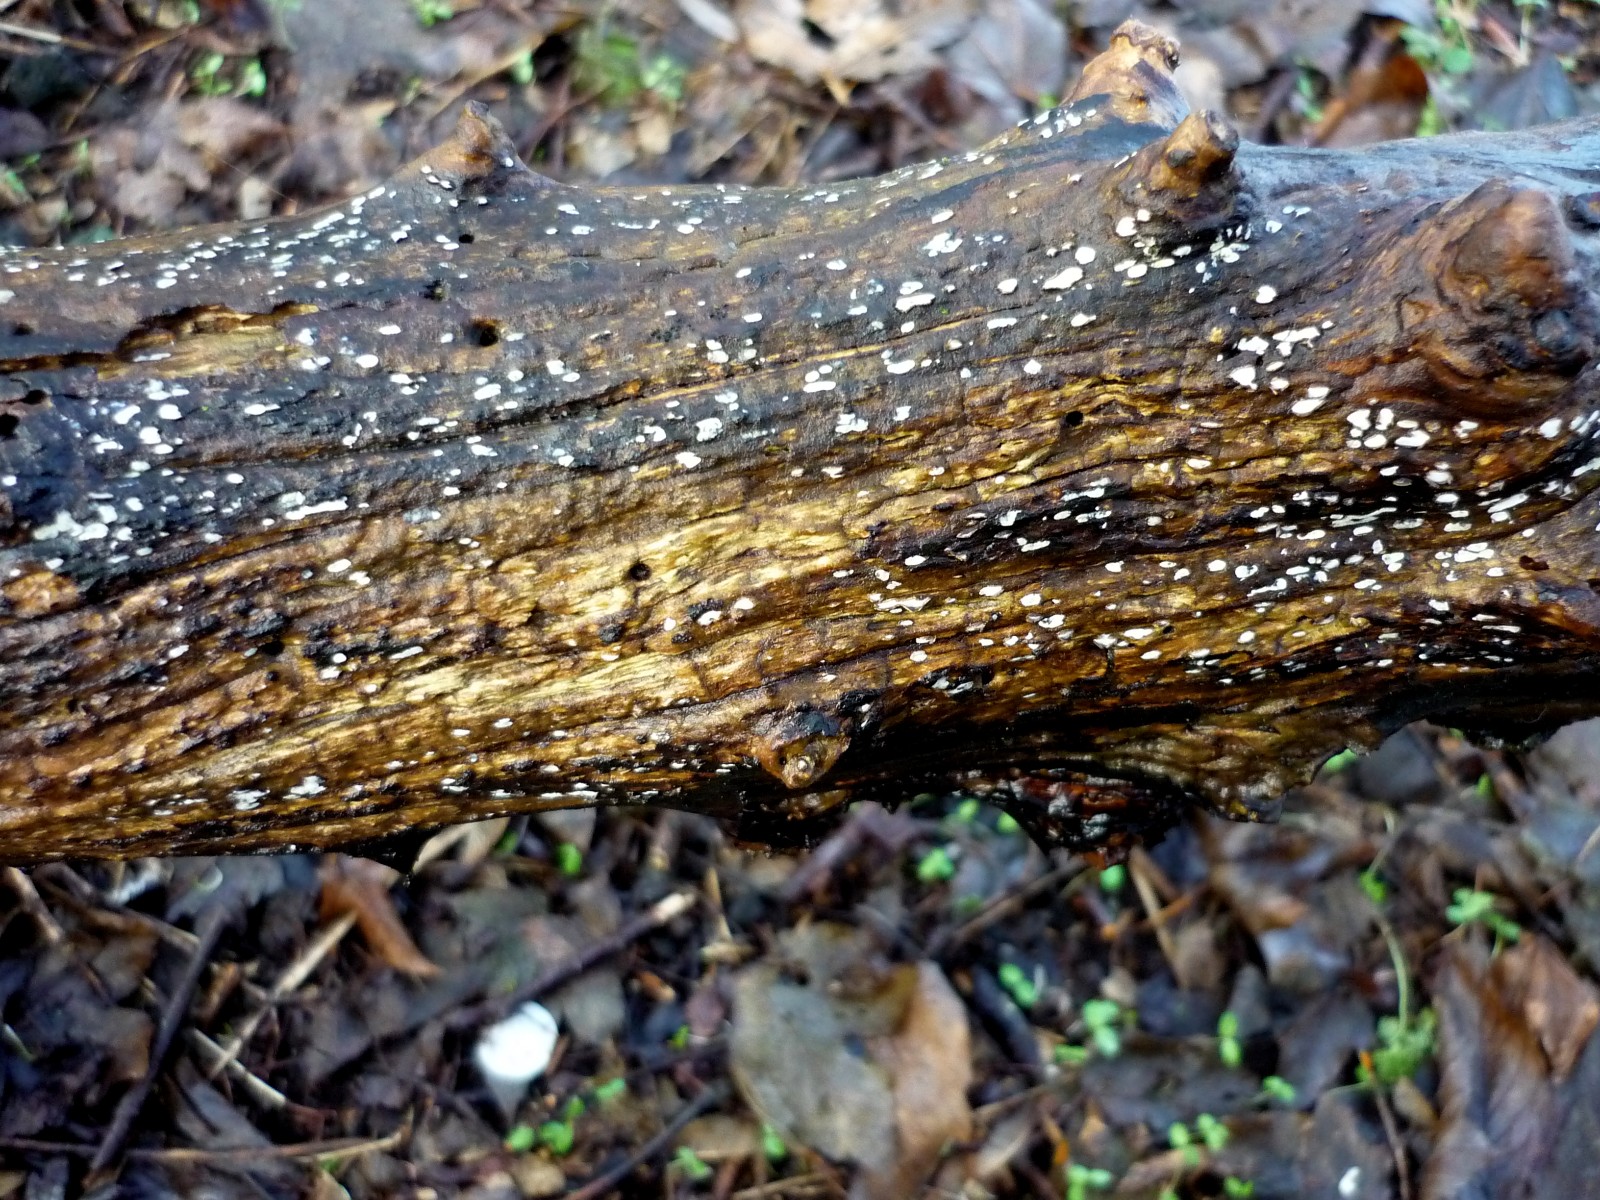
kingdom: Fungi
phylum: Ascomycota
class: Leotiomycetes
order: Chaetomellales
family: Marthamycetaceae
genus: Propolis
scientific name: Propolis farinosa
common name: almindelig vedsprængerskive
